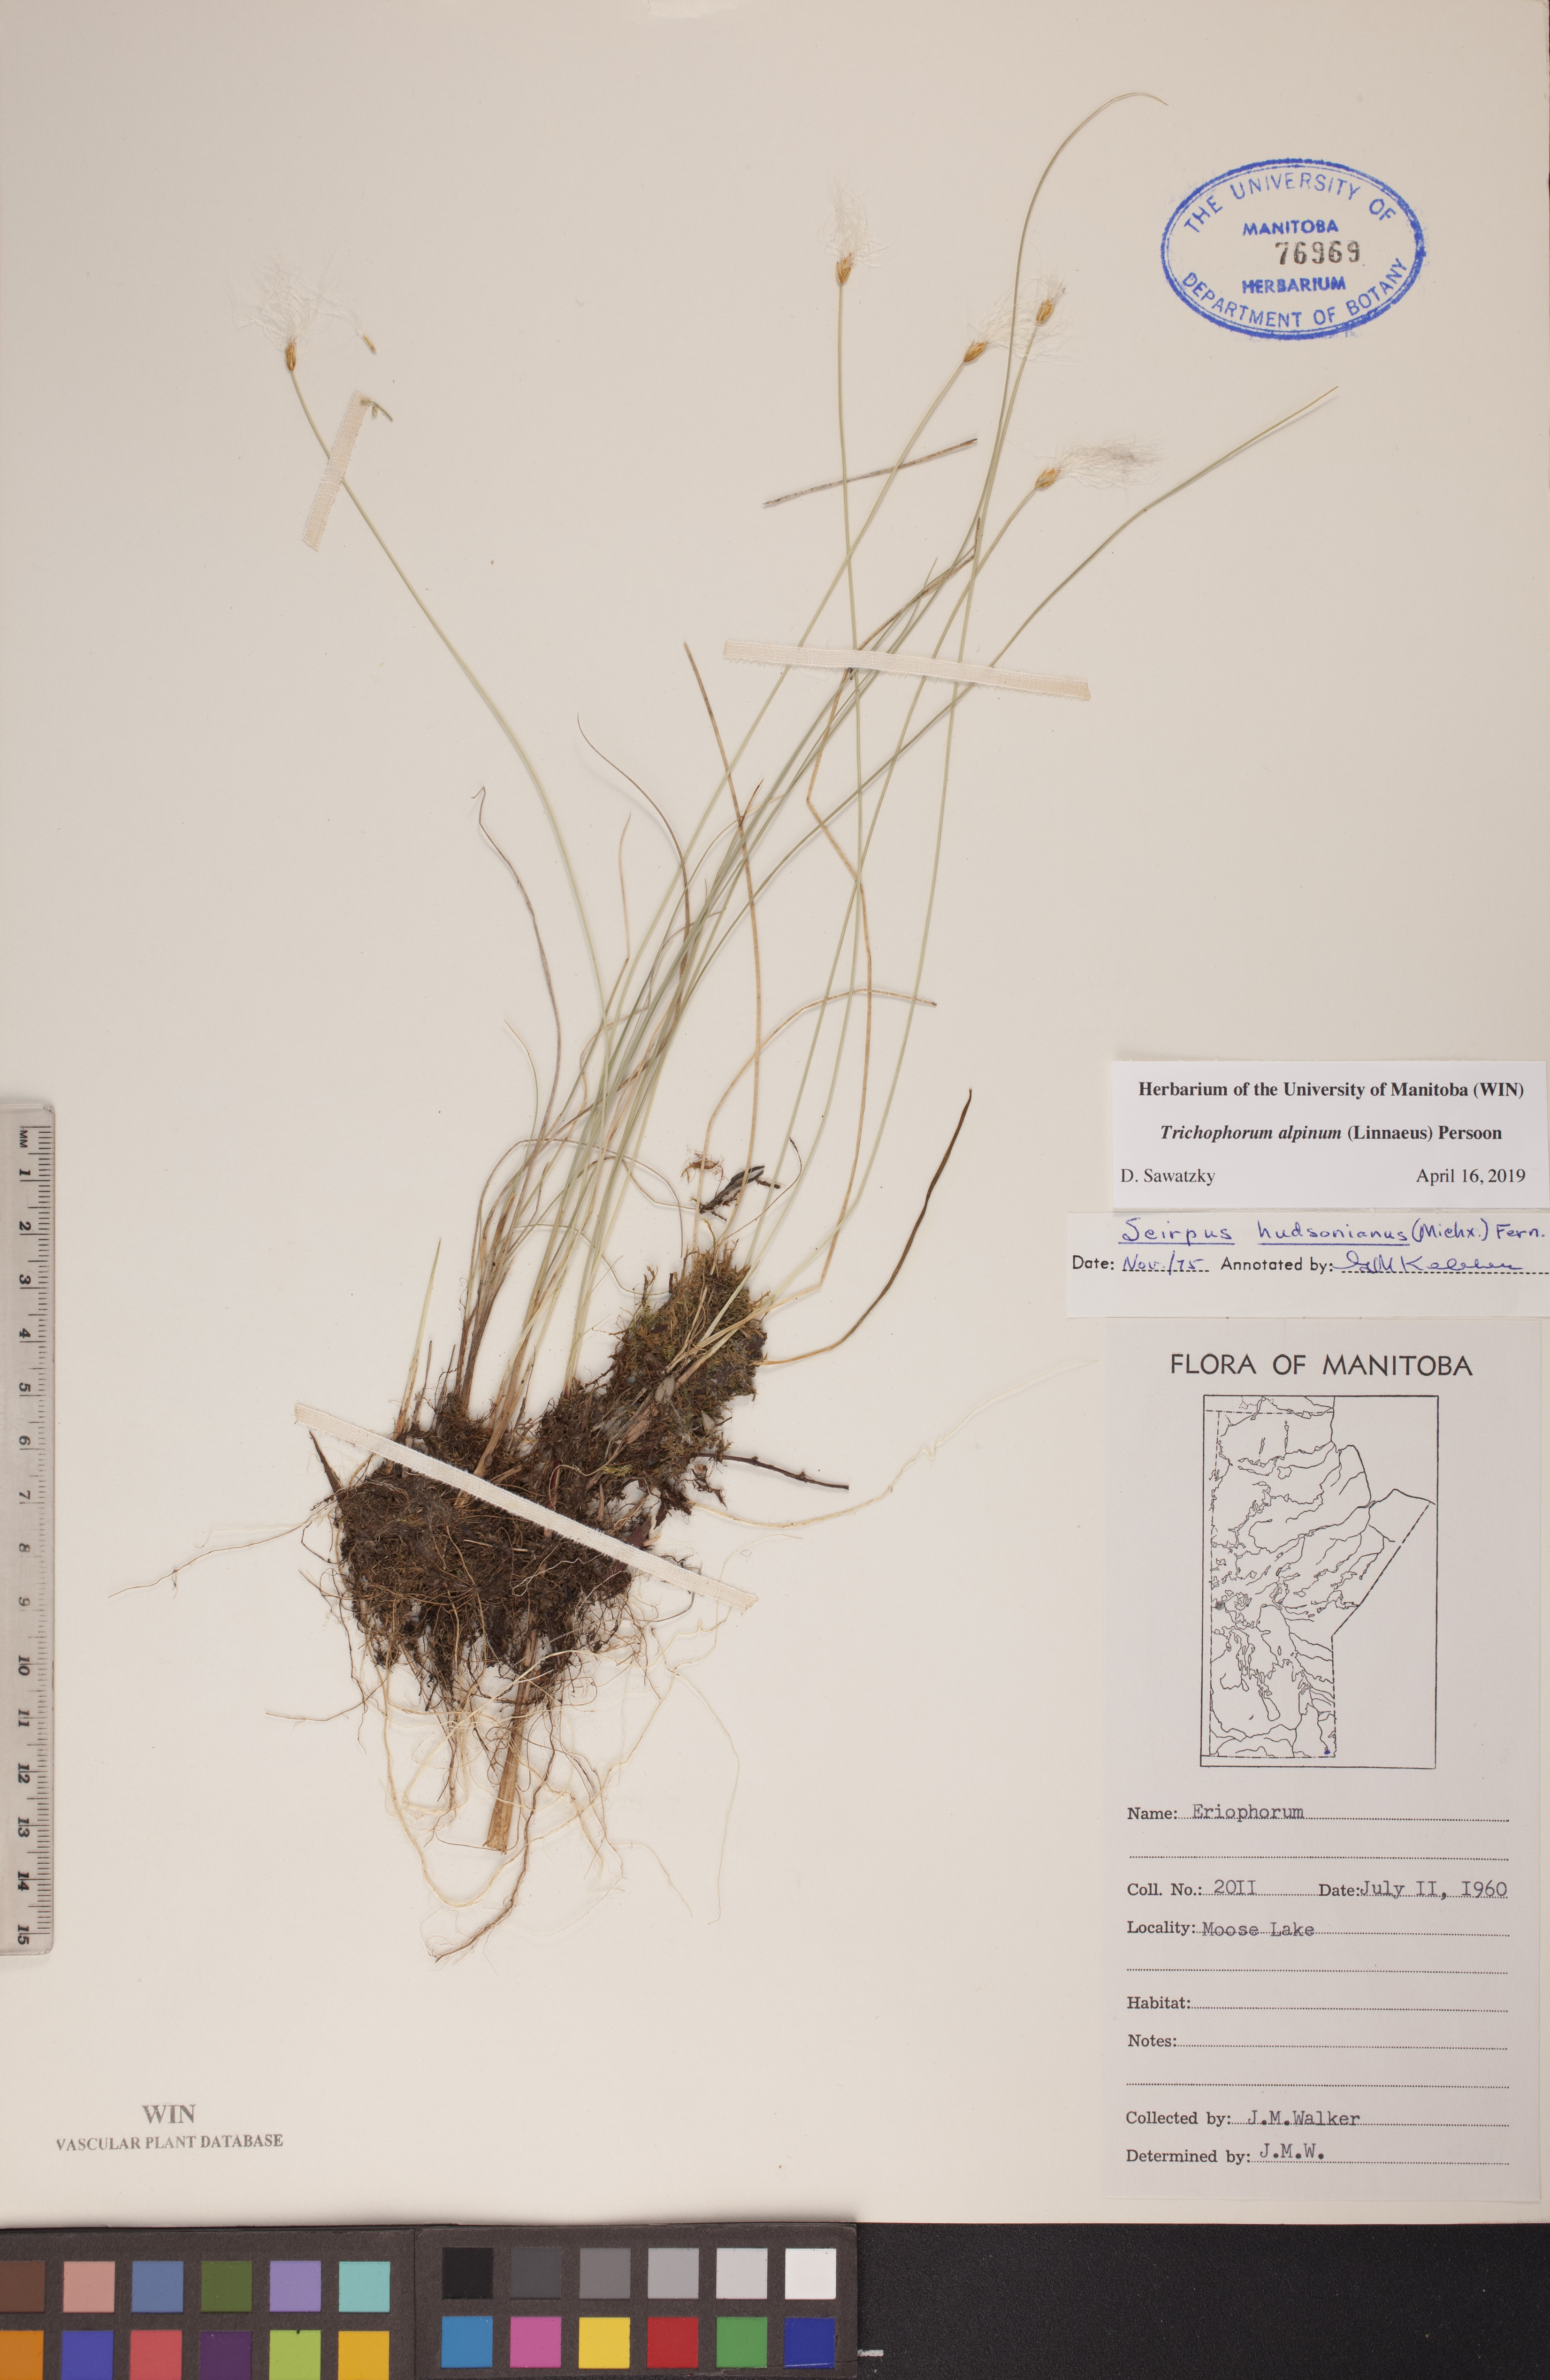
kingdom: Plantae
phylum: Tracheophyta
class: Liliopsida
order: Poales
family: Cyperaceae
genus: Trichophorum
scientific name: Trichophorum alpinum
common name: Alpine bulrush
